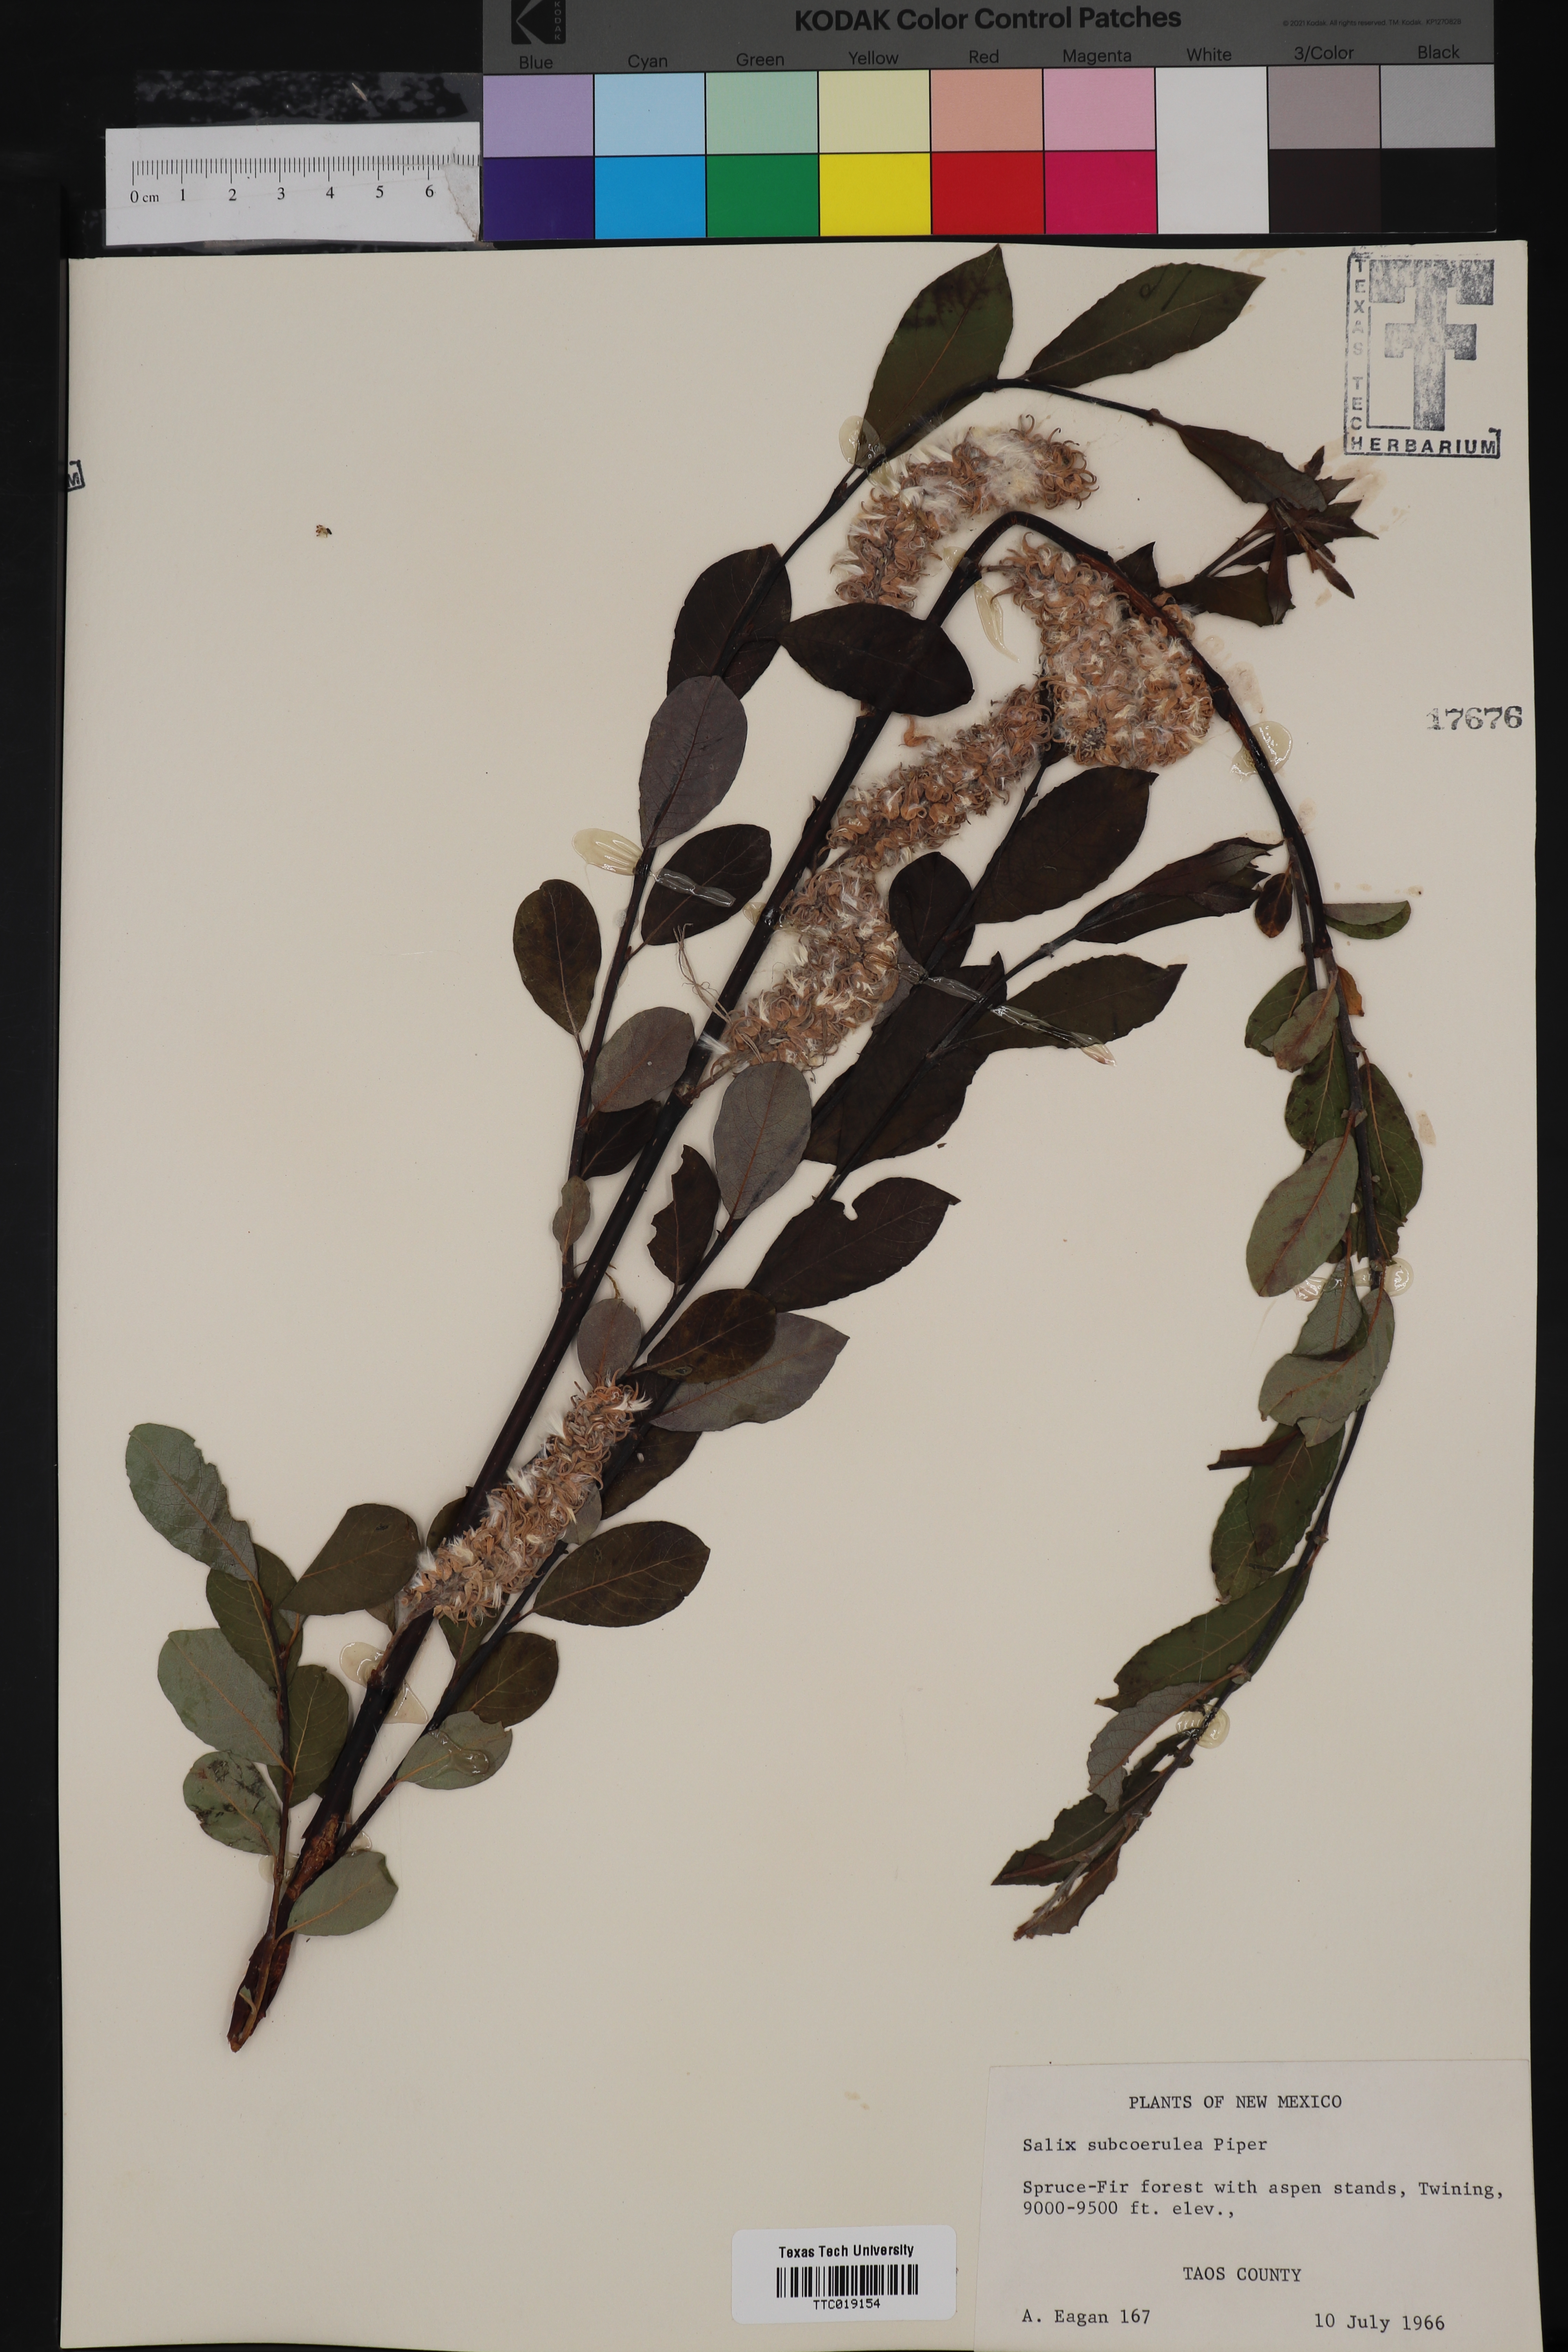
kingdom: Plantae
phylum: Tracheophyta
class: Magnoliopsida
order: Malpighiales
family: Salicaceae
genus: Salix
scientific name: Salix drummondiana
